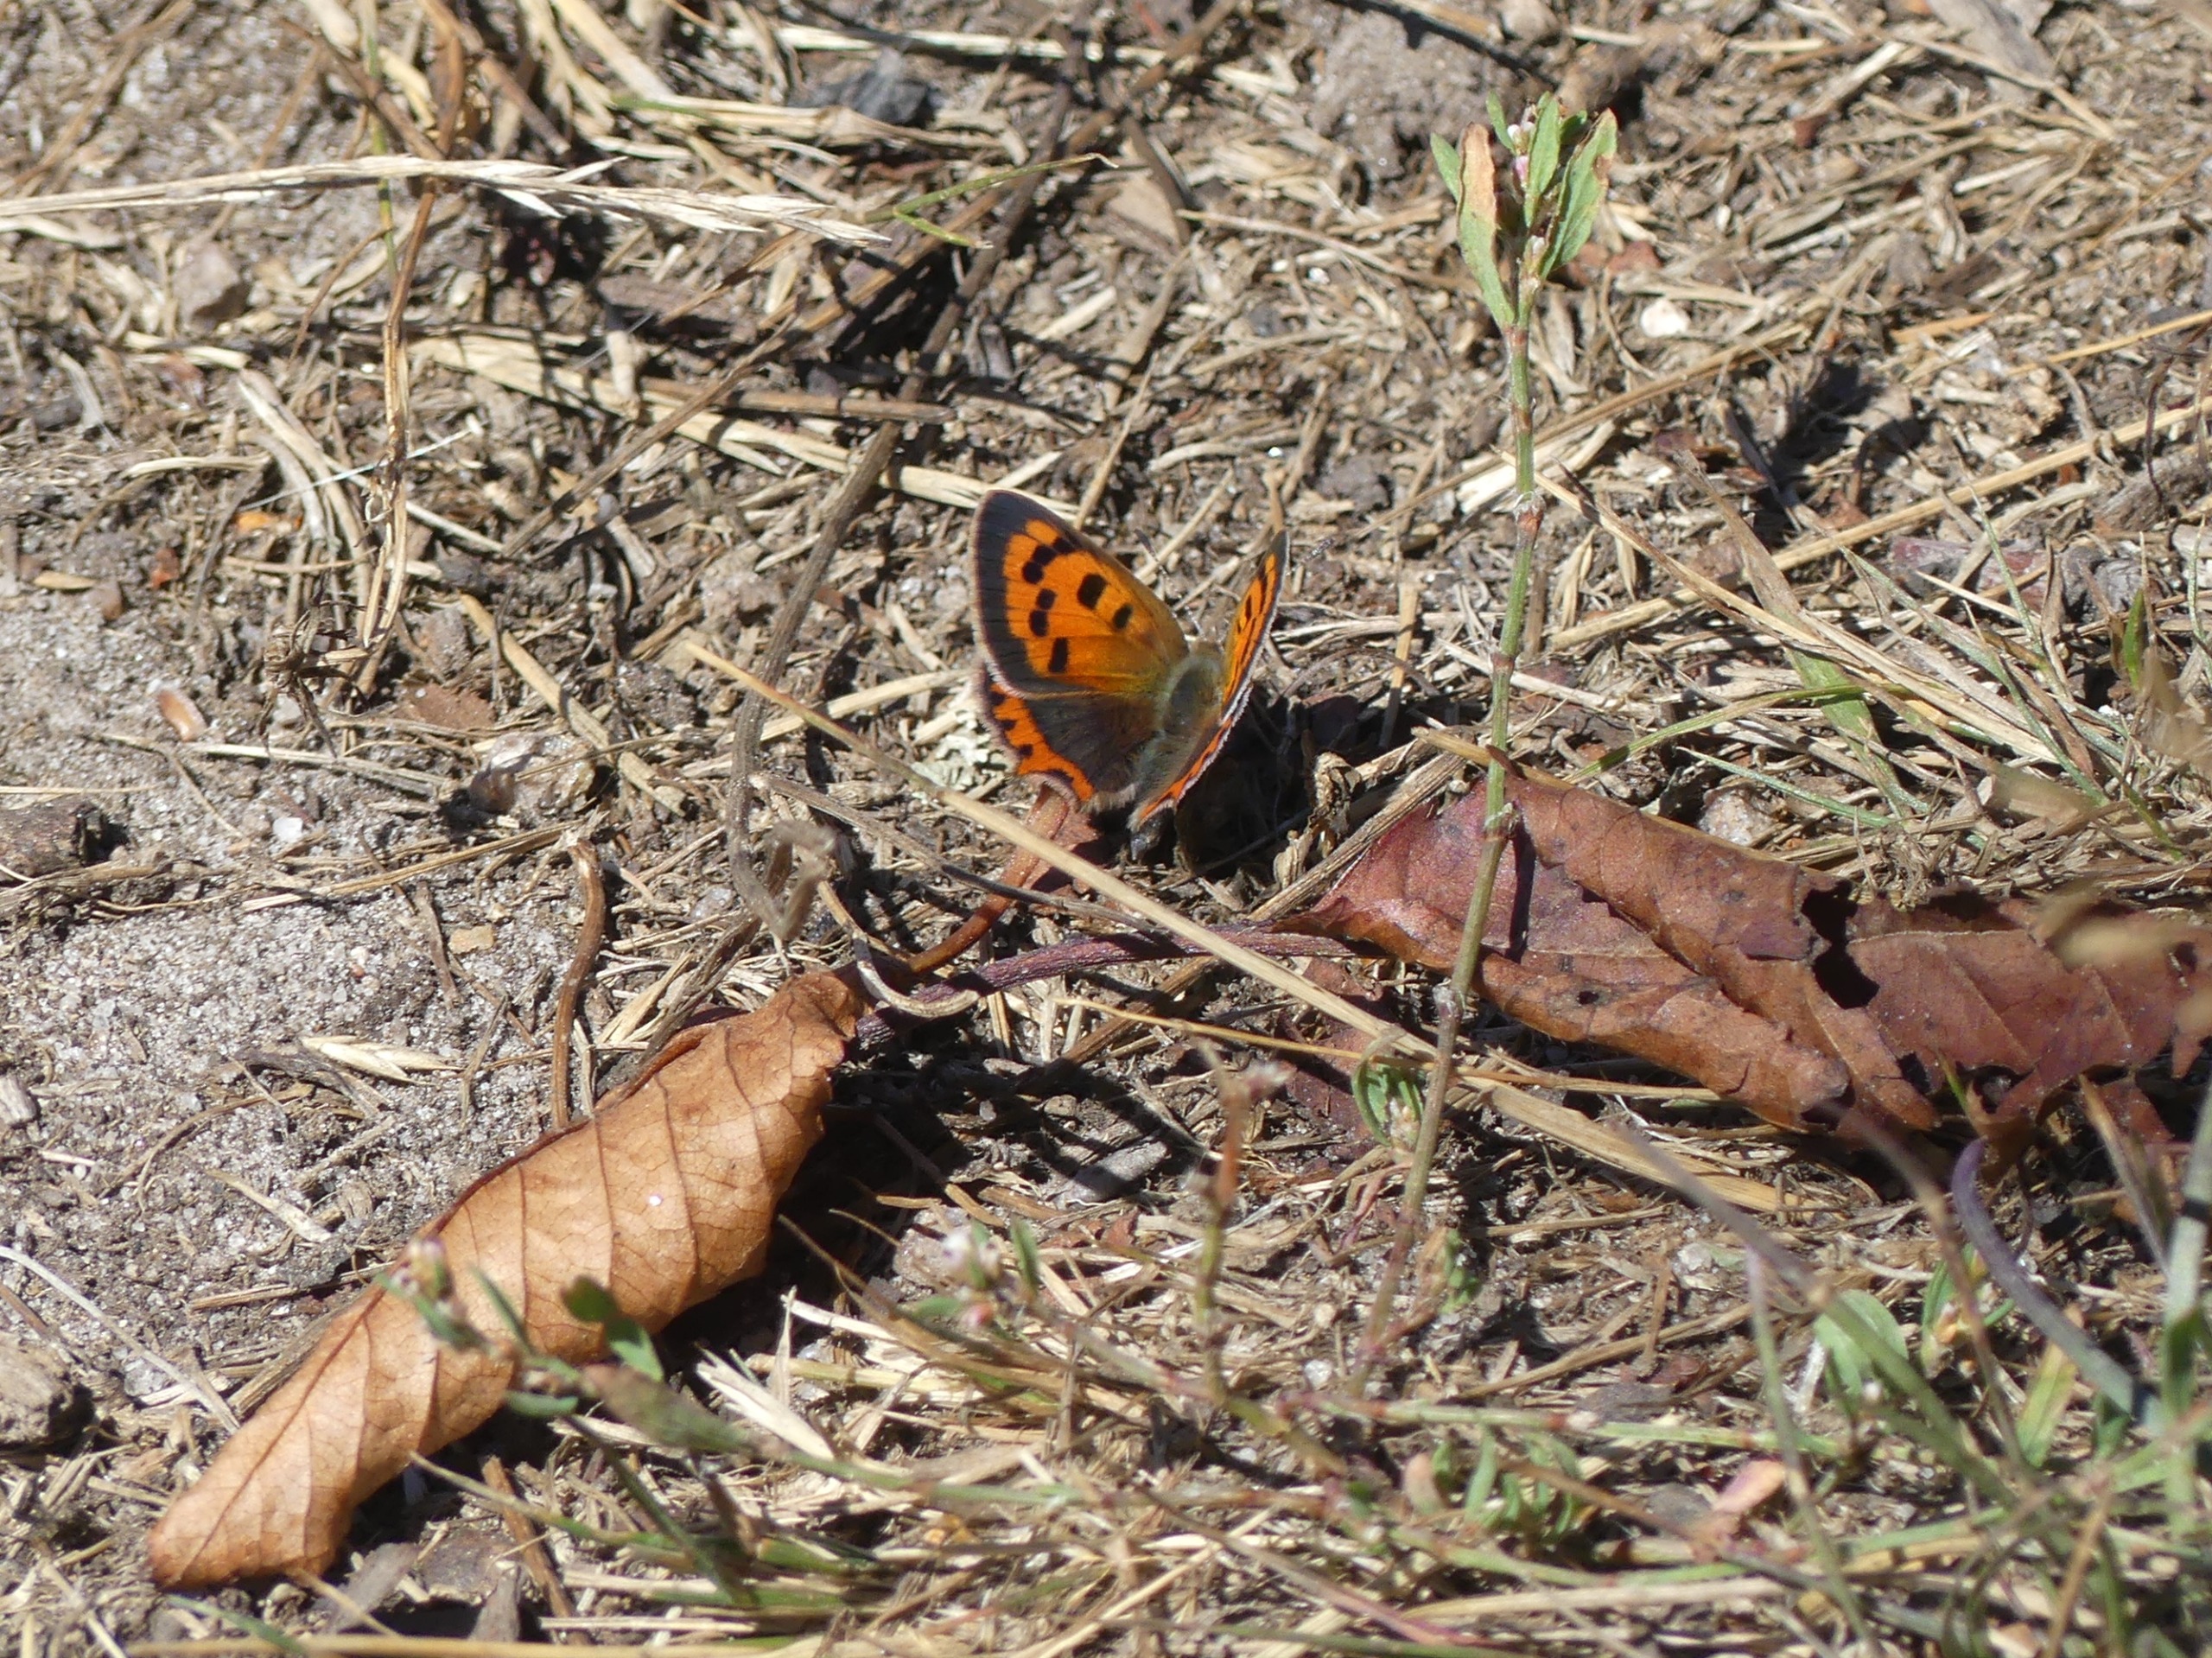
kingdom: Animalia
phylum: Arthropoda
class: Insecta
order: Lepidoptera
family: Lycaenidae
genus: Lycaena
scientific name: Lycaena phlaeas
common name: Lille ildfugl
